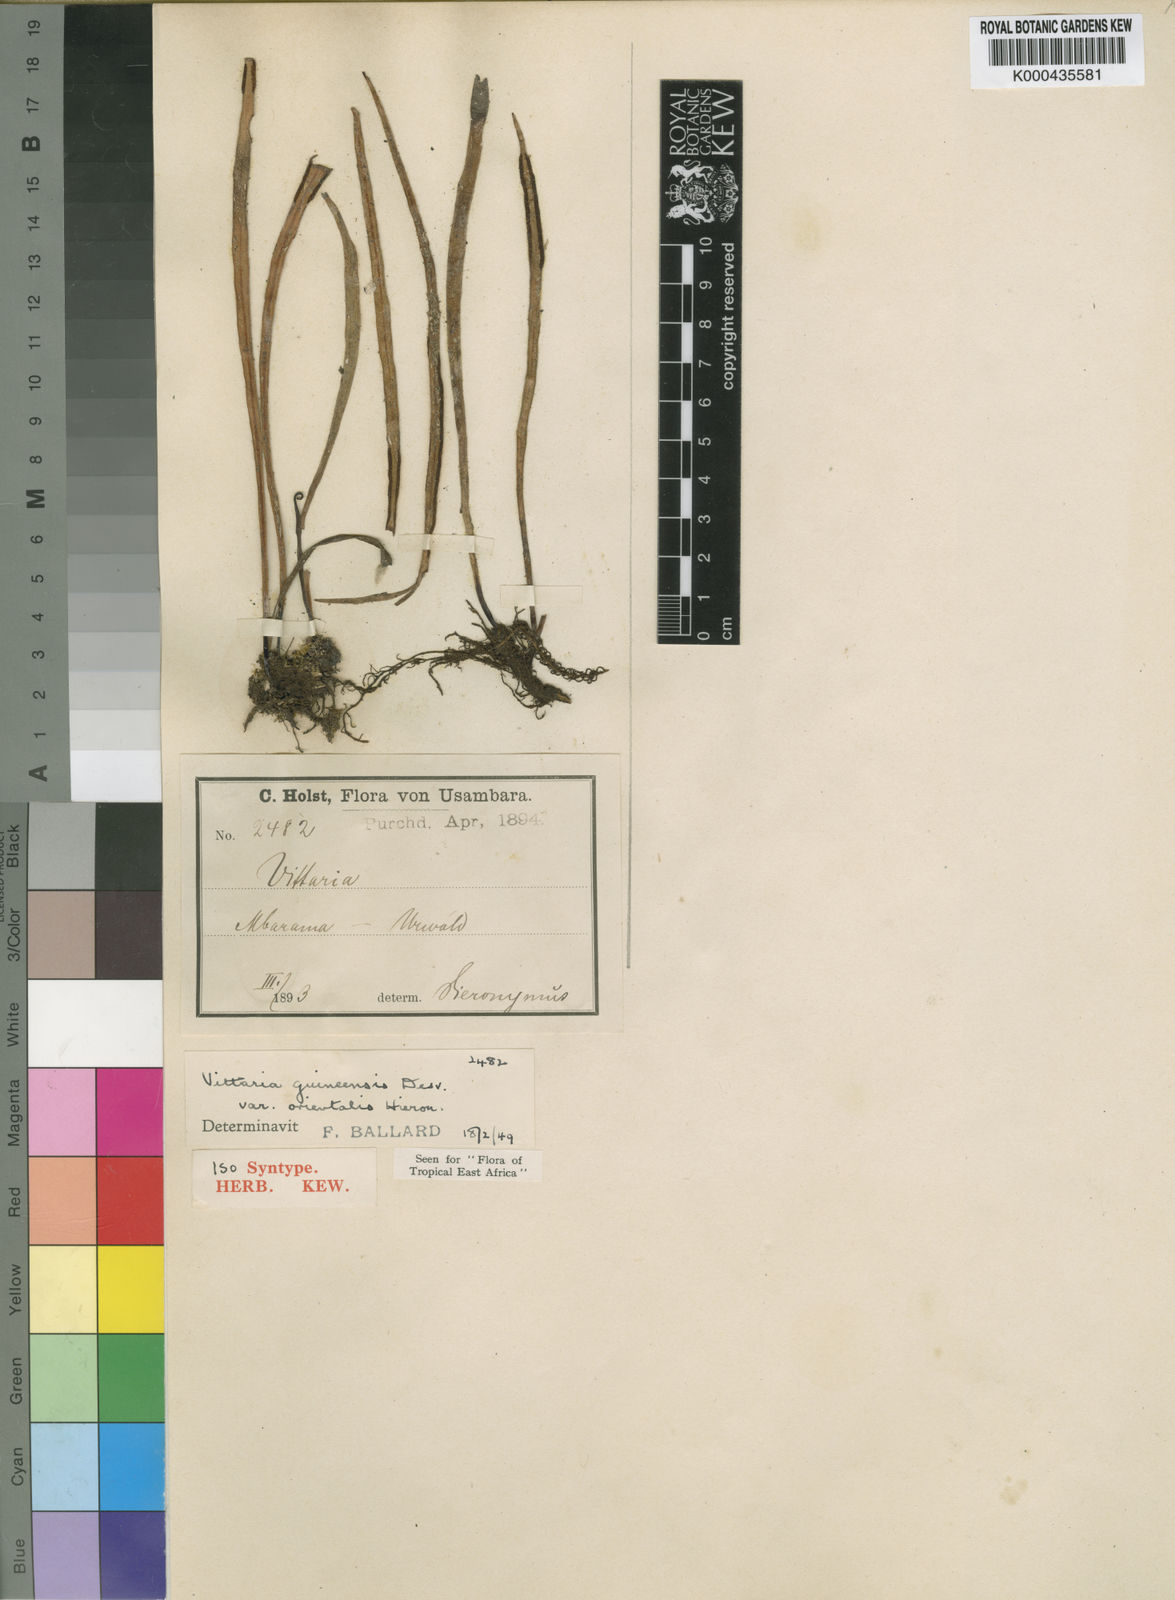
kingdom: Plantae
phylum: Tracheophyta
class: Polypodiopsida
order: Polypodiales
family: Pteridaceae
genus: Haplopteris
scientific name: Haplopteris guineensis
